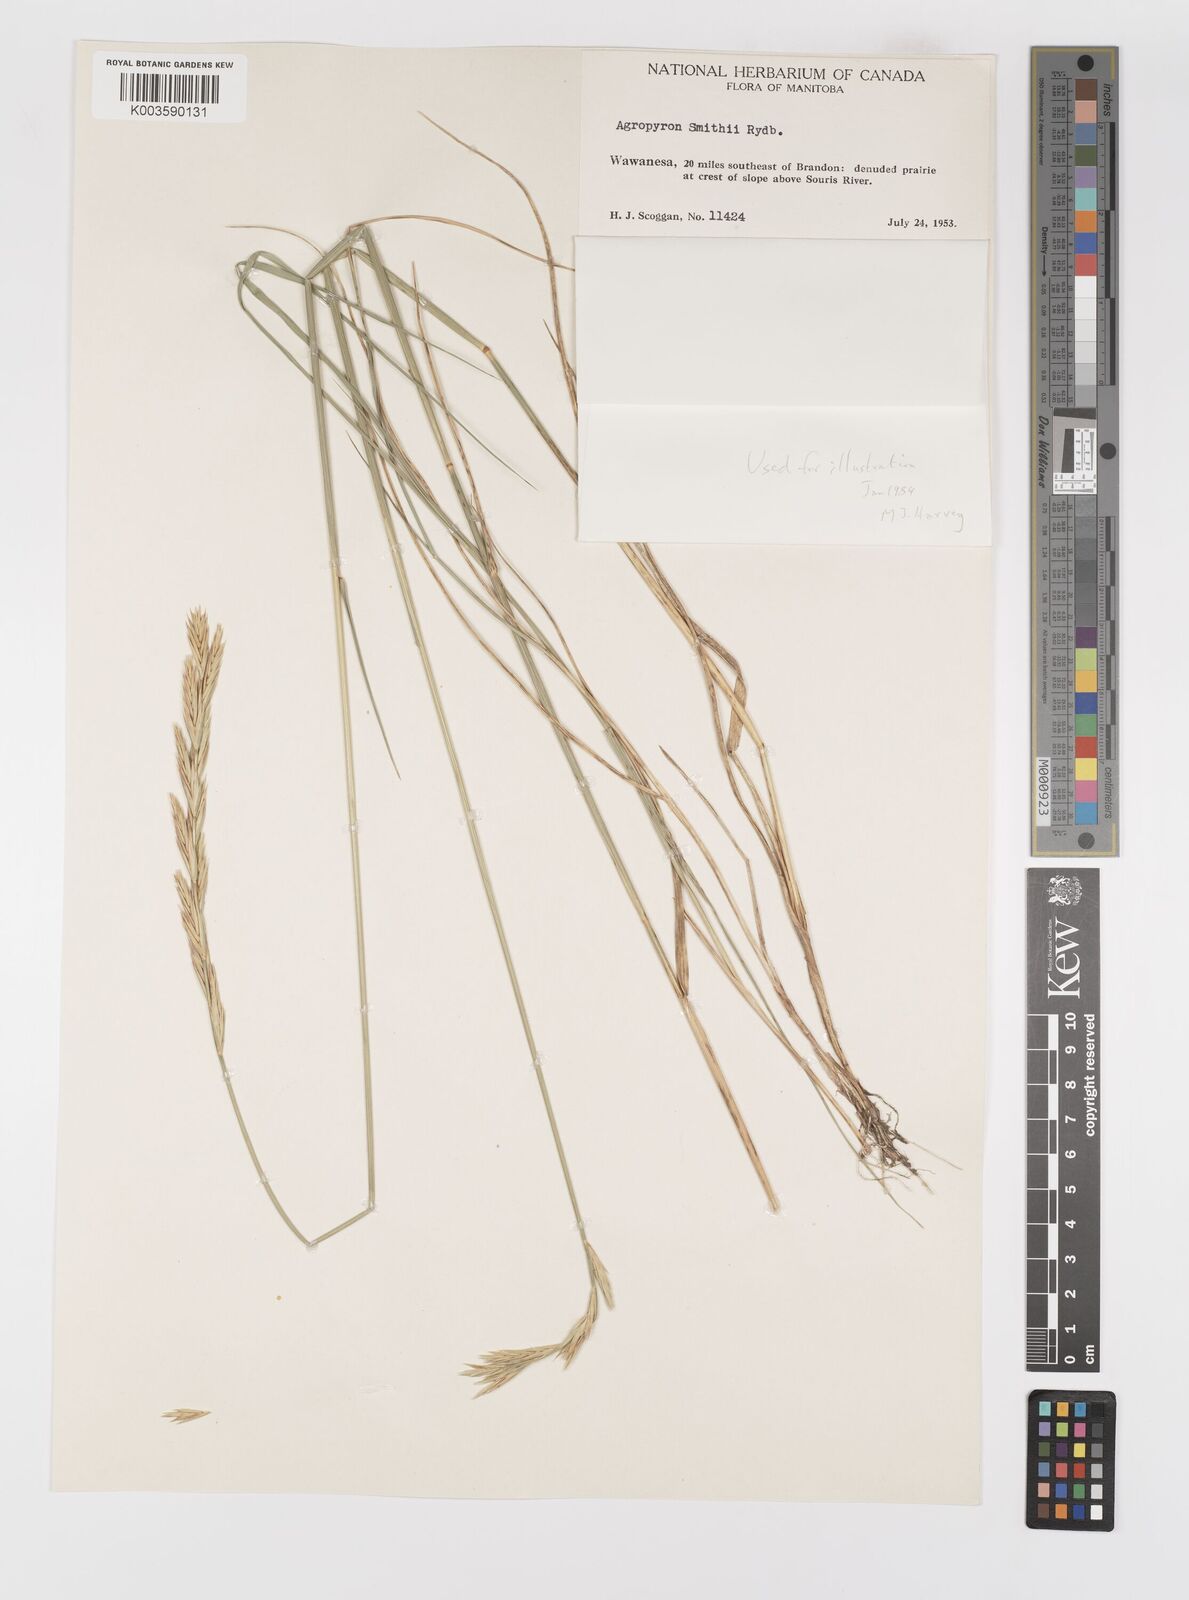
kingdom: Plantae
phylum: Tracheophyta
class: Liliopsida
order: Poales
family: Poaceae
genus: Elymus
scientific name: Elymus smithii
